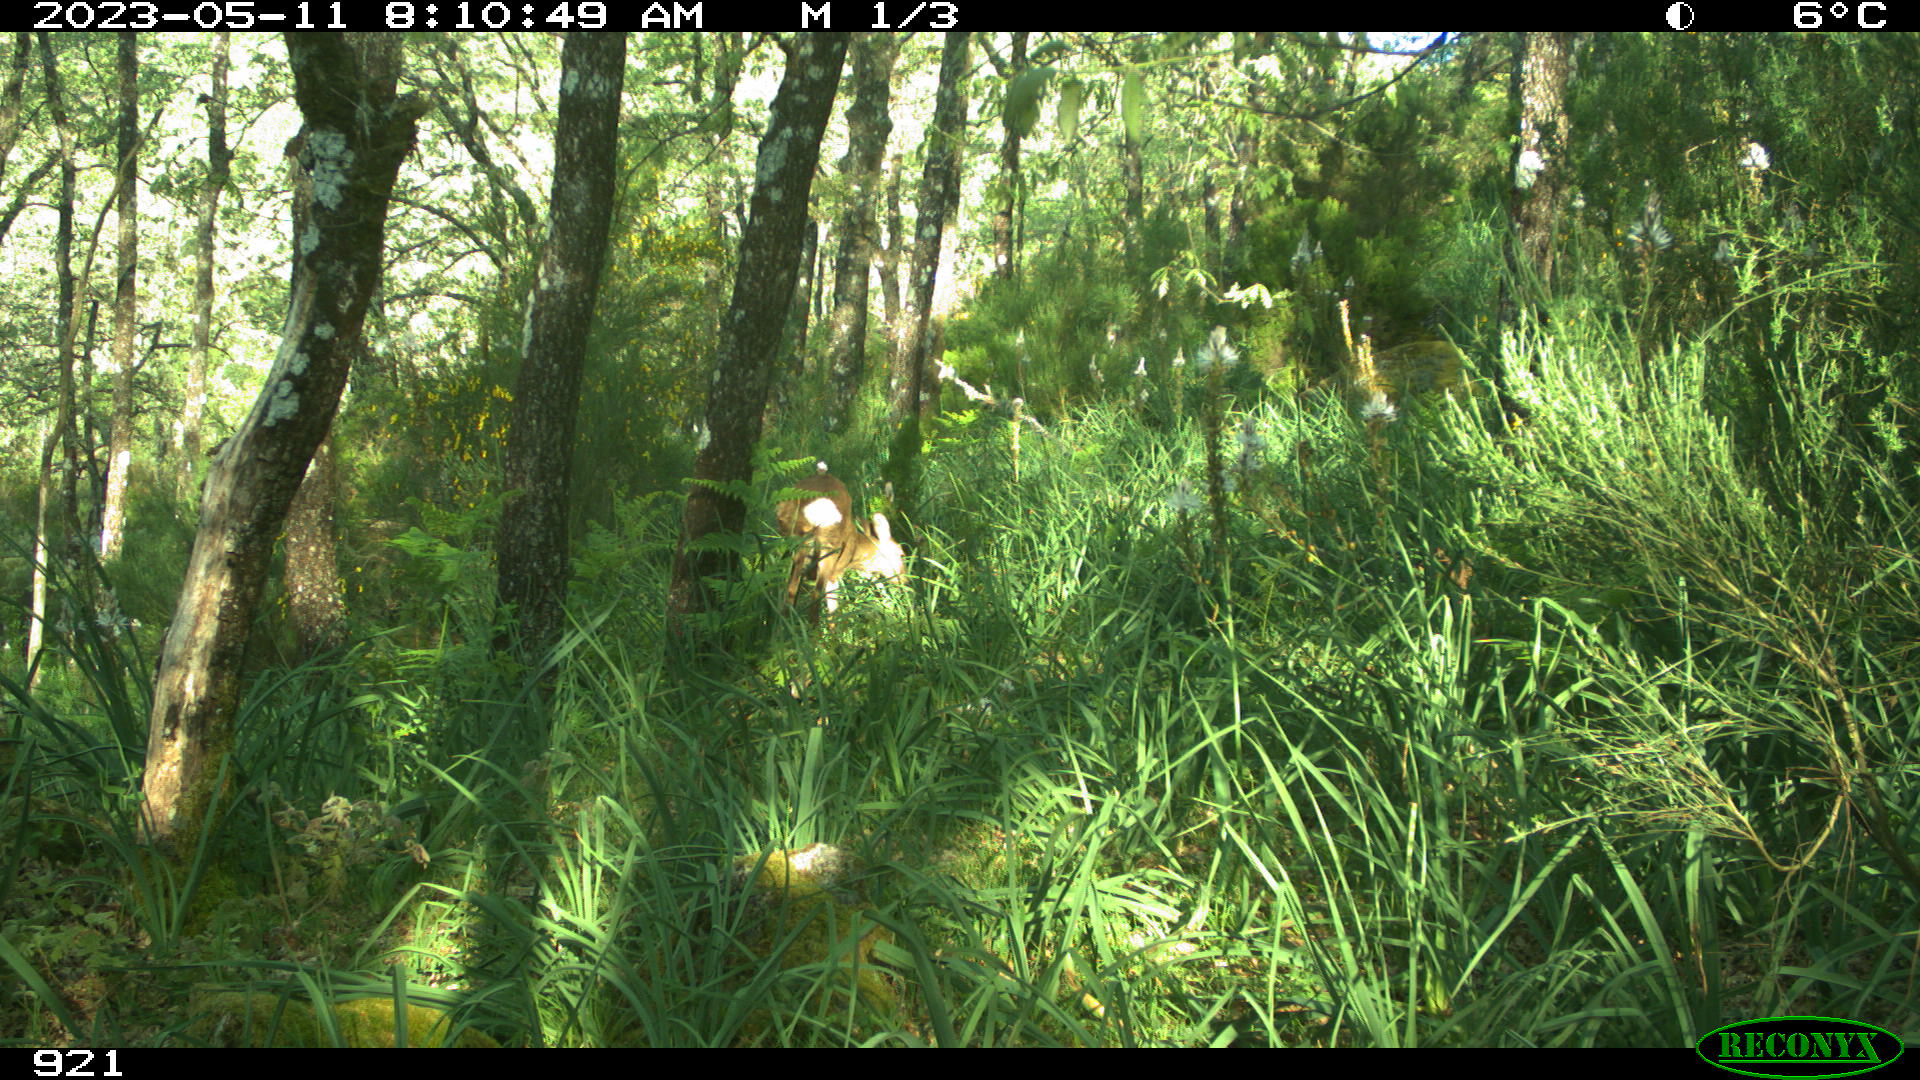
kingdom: Animalia
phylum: Chordata
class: Mammalia
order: Artiodactyla
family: Cervidae
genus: Capreolus
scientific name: Capreolus capreolus
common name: Western roe deer
